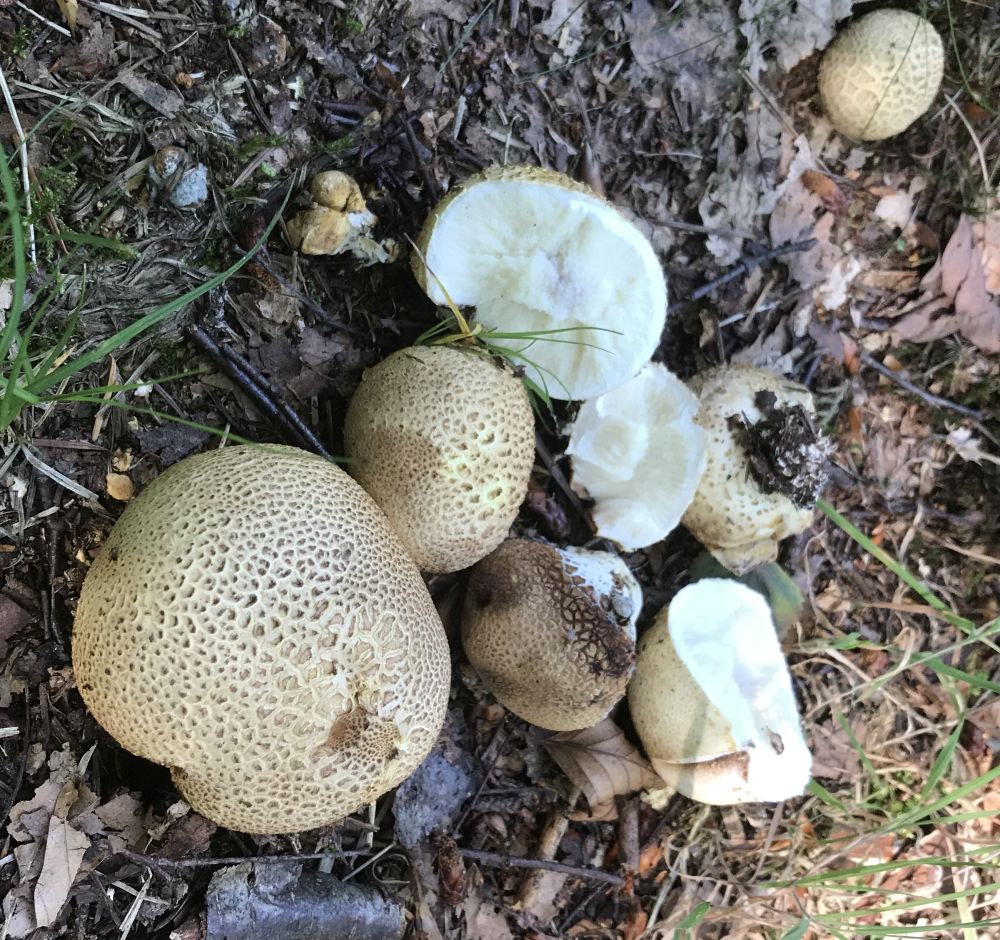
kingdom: Fungi
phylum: Basidiomycota
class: Agaricomycetes
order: Boletales
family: Sclerodermataceae
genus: Scleroderma
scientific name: Scleroderma citrinum
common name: almindelig bruskbold
